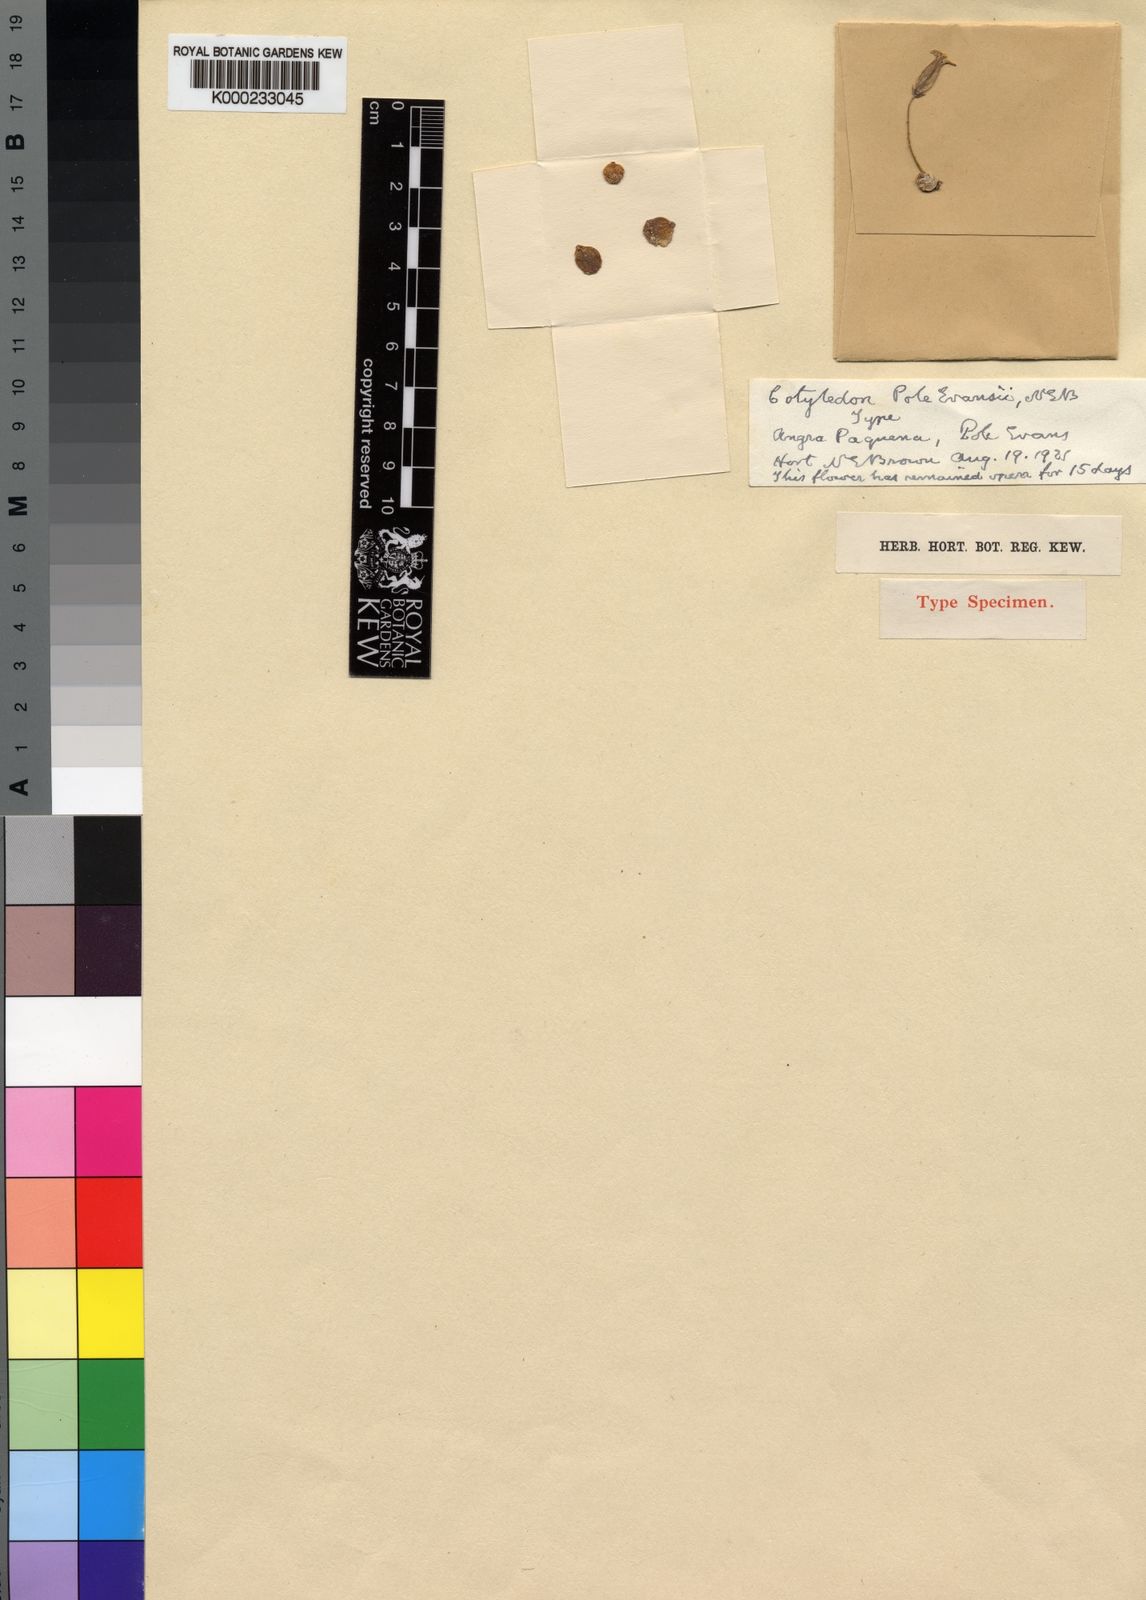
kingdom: Plantae
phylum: Tracheophyta
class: Magnoliopsida
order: Saxifragales
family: Crassulaceae
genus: Tylecodon
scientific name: Tylecodon
